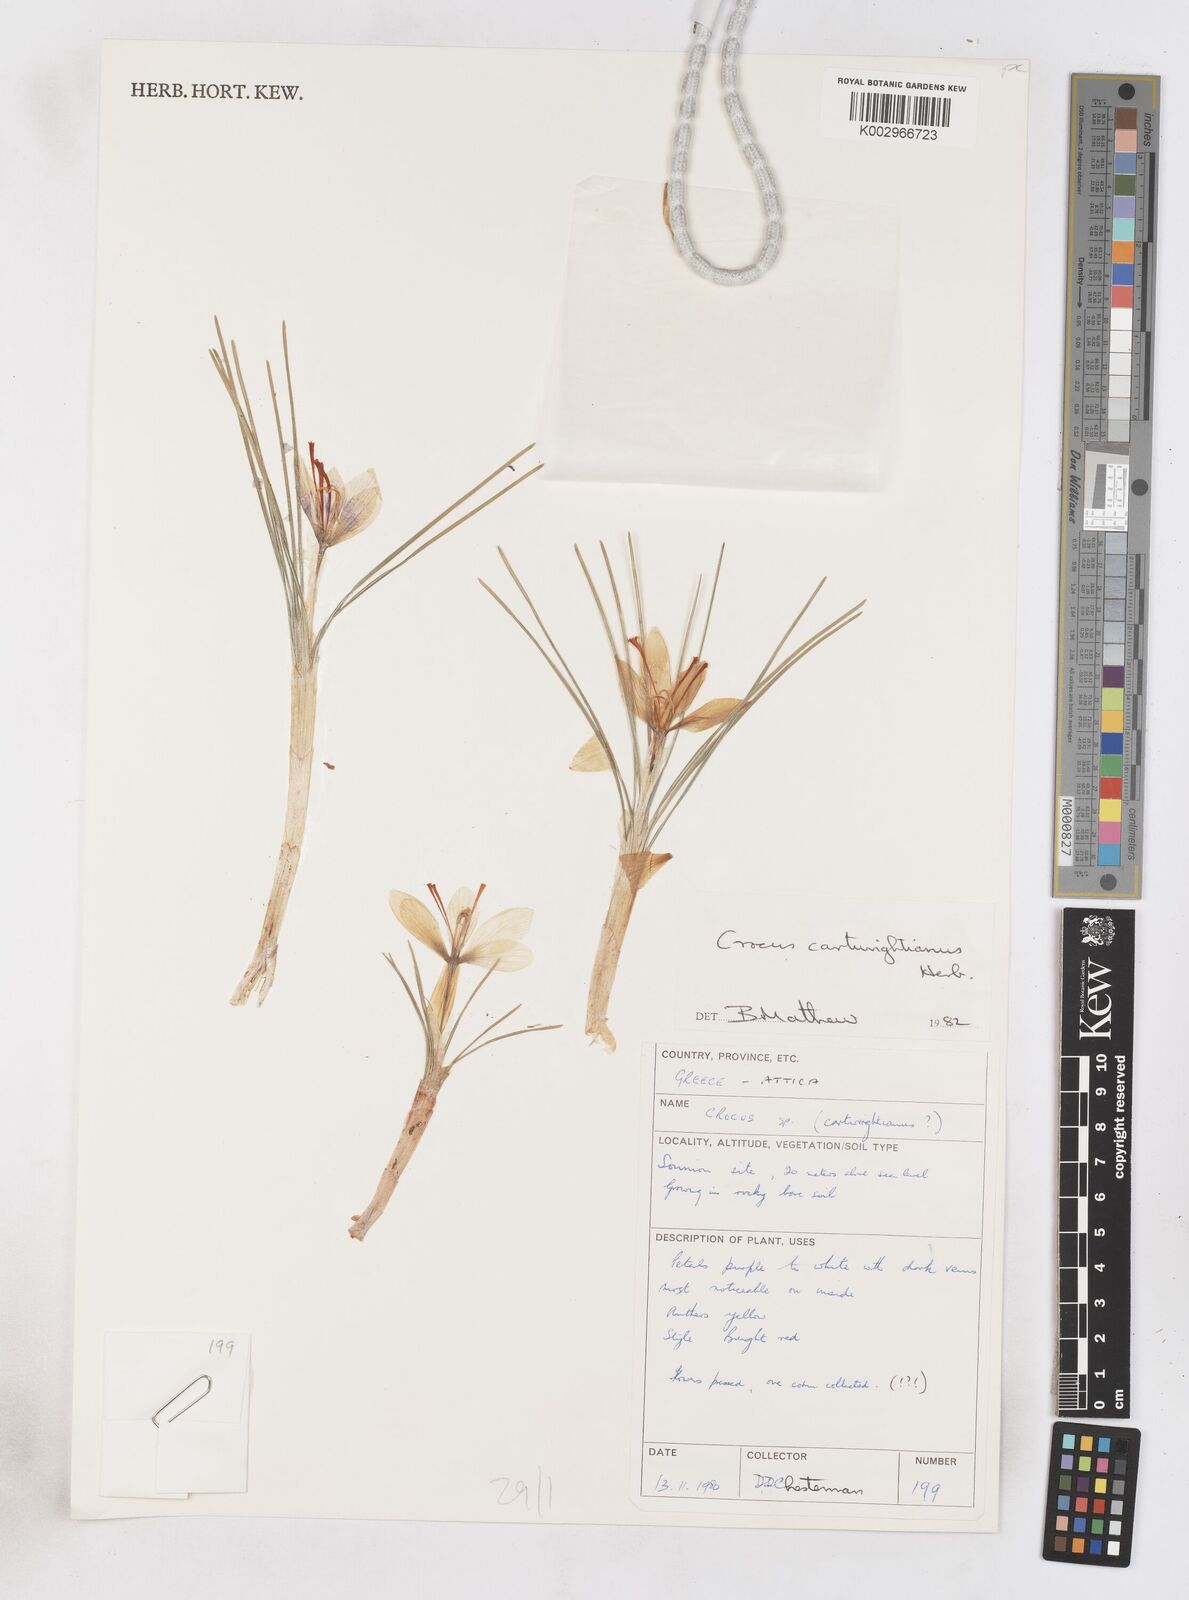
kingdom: Plantae
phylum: Tracheophyta
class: Liliopsida
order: Asparagales
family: Iridaceae
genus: Crocus
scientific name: Crocus cartwrightianus
